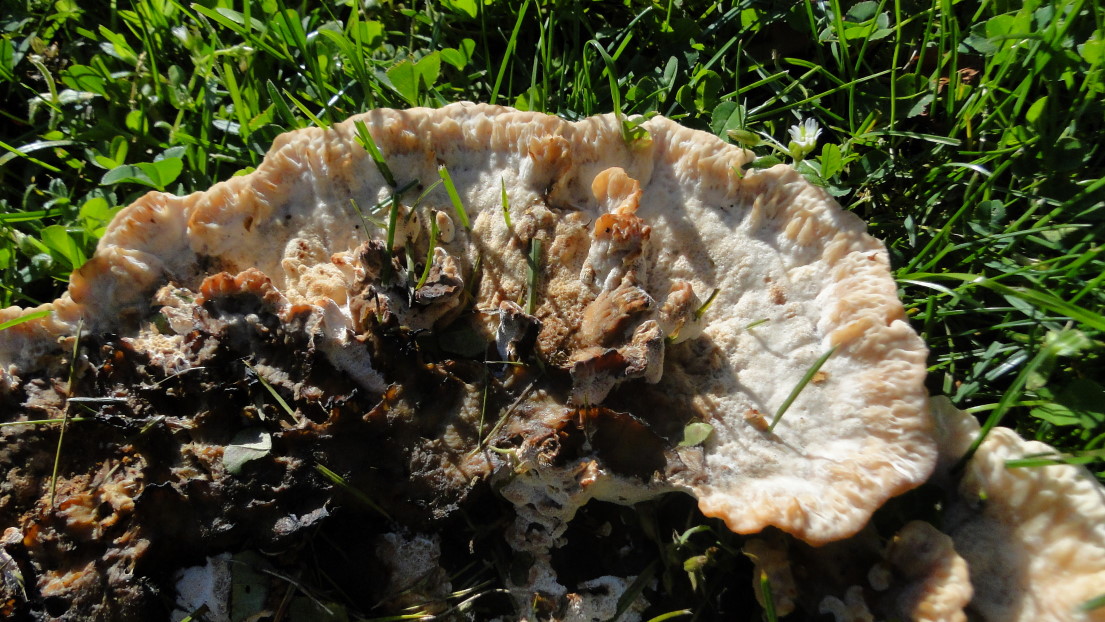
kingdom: Fungi
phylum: Basidiomycota
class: Agaricomycetes
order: Polyporales
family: Podoscyphaceae
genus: Abortiporus
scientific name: Abortiporus biennis
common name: rødmende pjalteporesvamp
